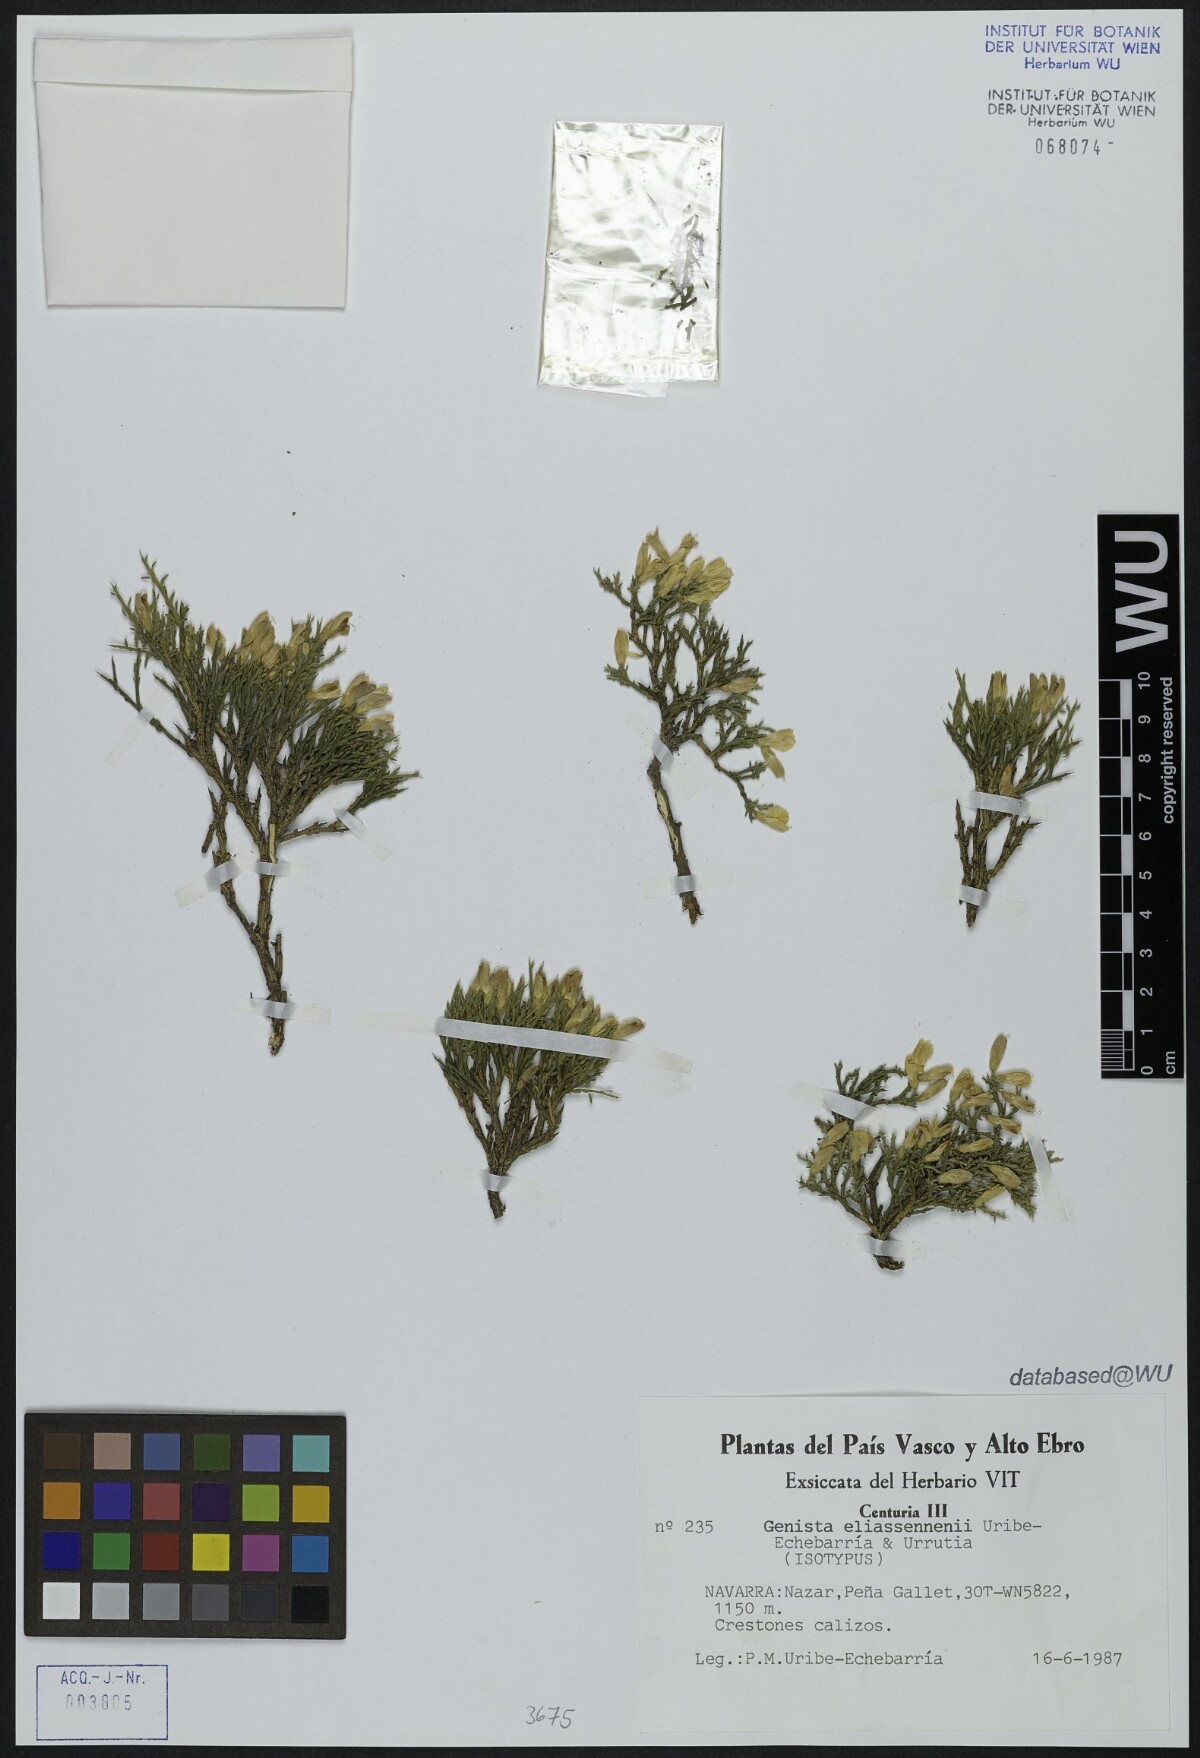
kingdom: Plantae
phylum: Tracheophyta
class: Magnoliopsida
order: Fabales
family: Fabaceae
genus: Genista
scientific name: Genista versicolor
